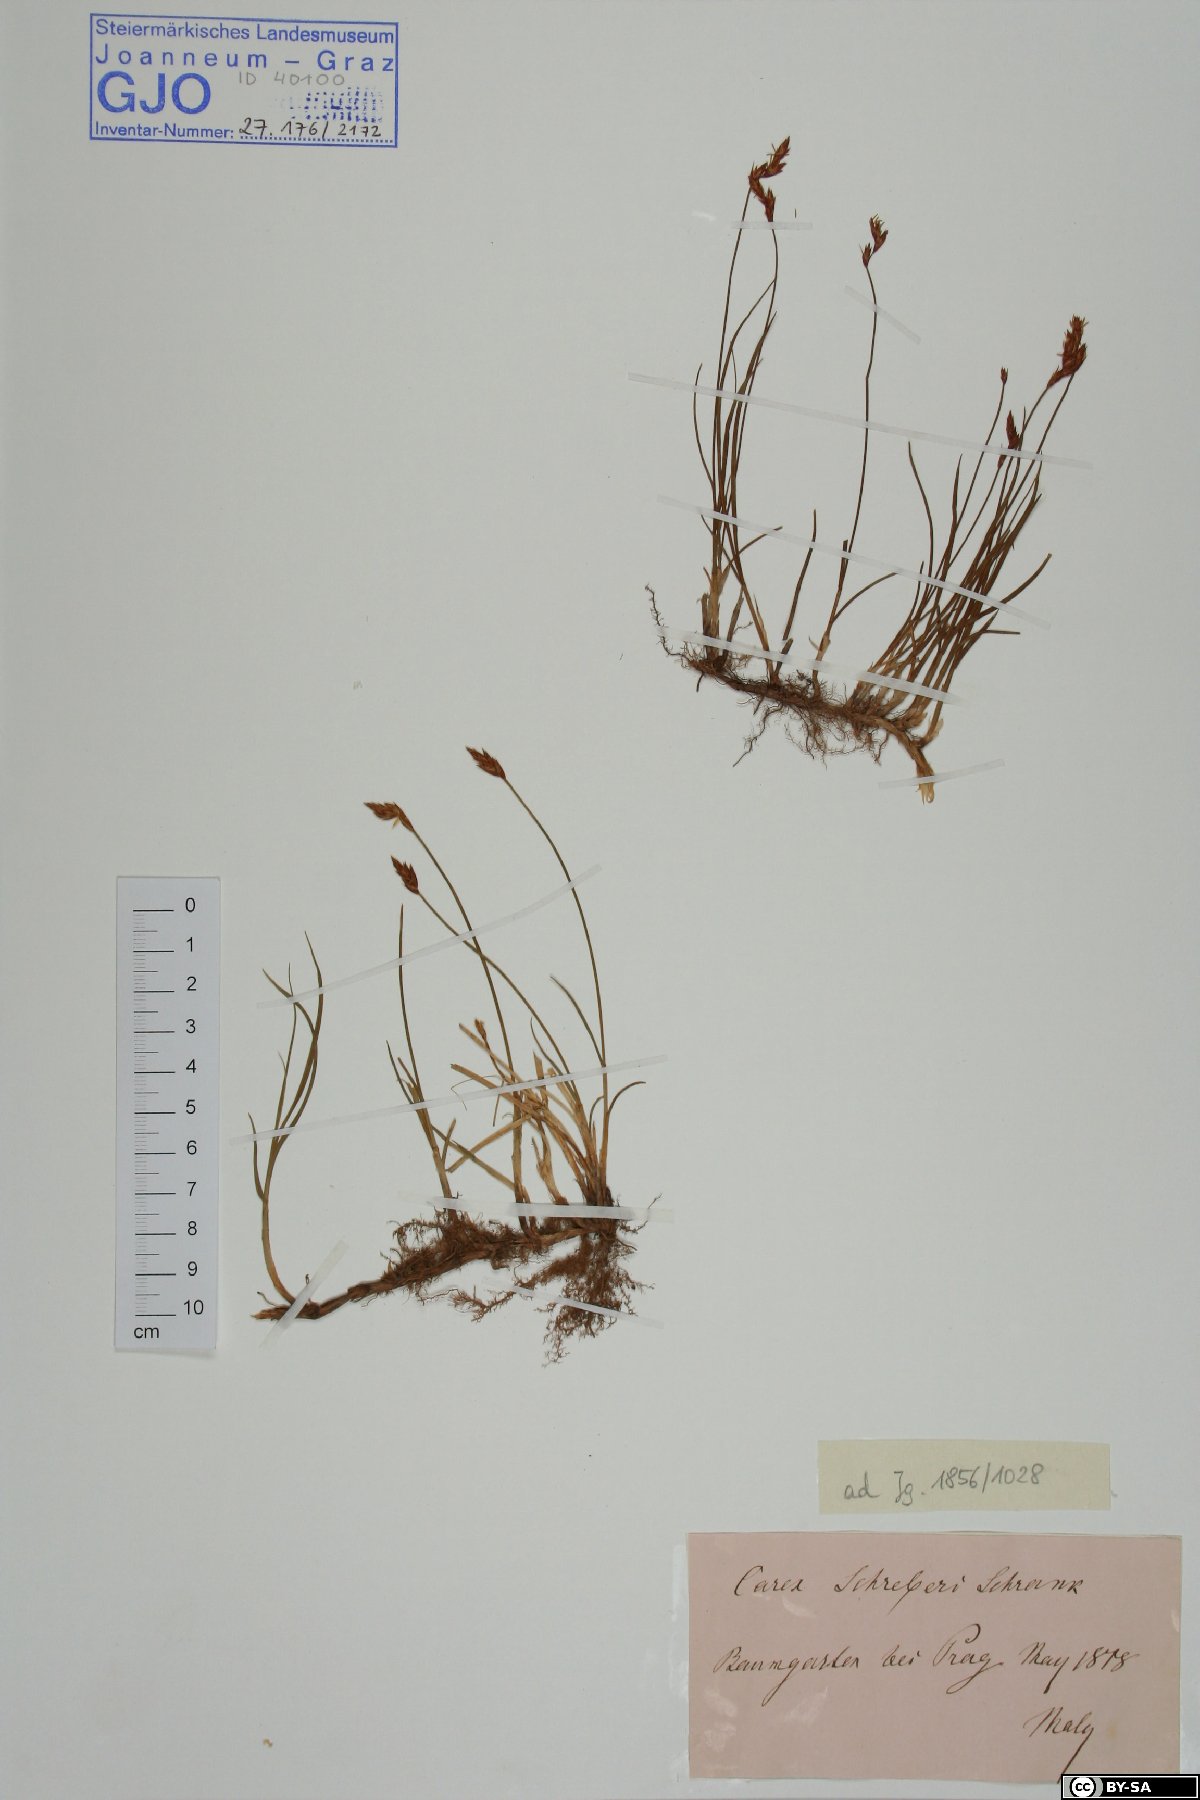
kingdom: Plantae
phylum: Tracheophyta
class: Liliopsida
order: Poales
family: Cyperaceae
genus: Carex
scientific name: Carex praecox
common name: Early sedge
